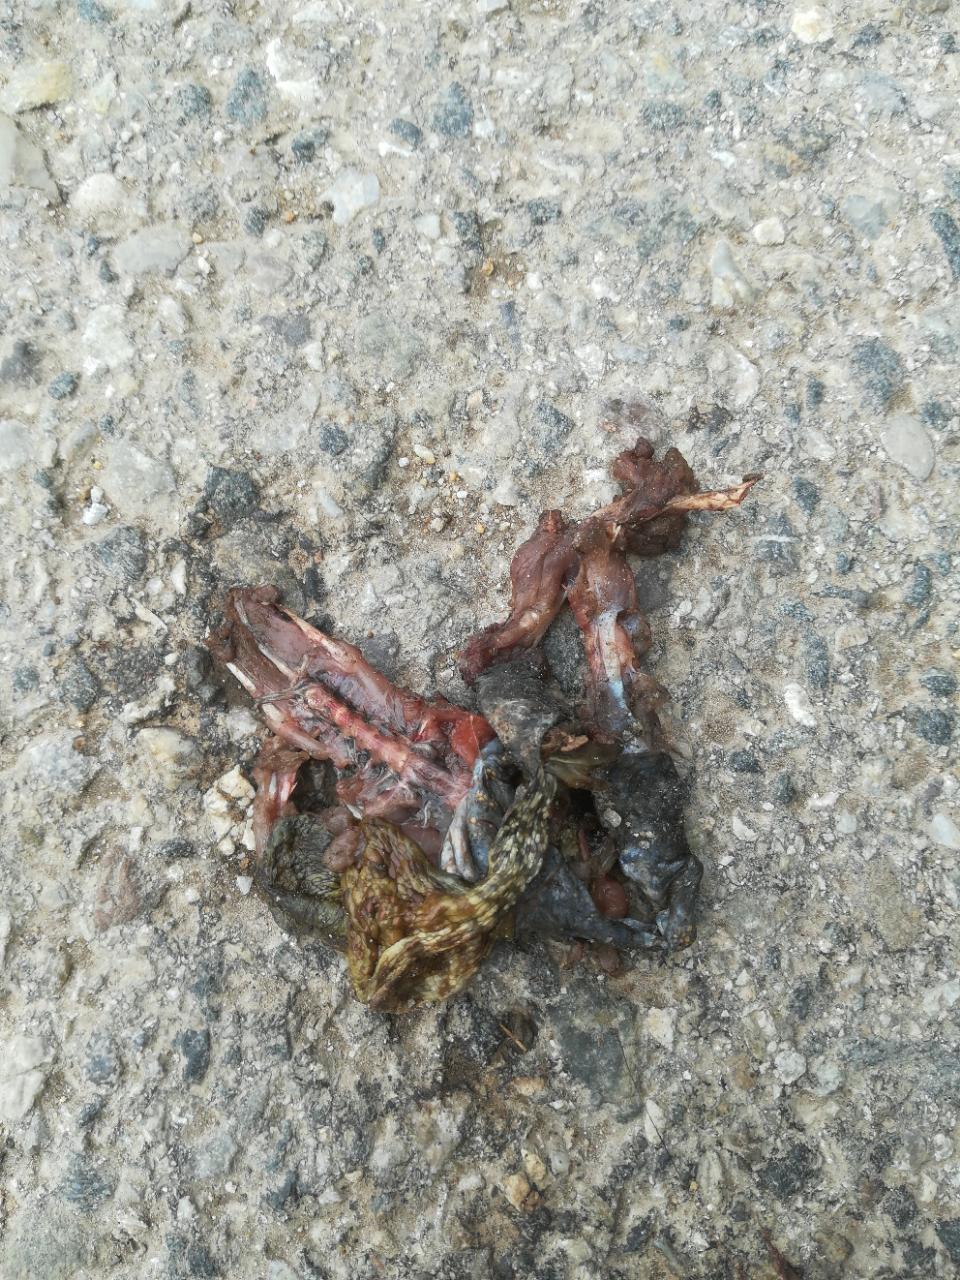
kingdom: Animalia
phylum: Chordata
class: Amphibia
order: Anura
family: Bufonidae
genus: Bufo
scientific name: Bufo bufo
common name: Common toad
